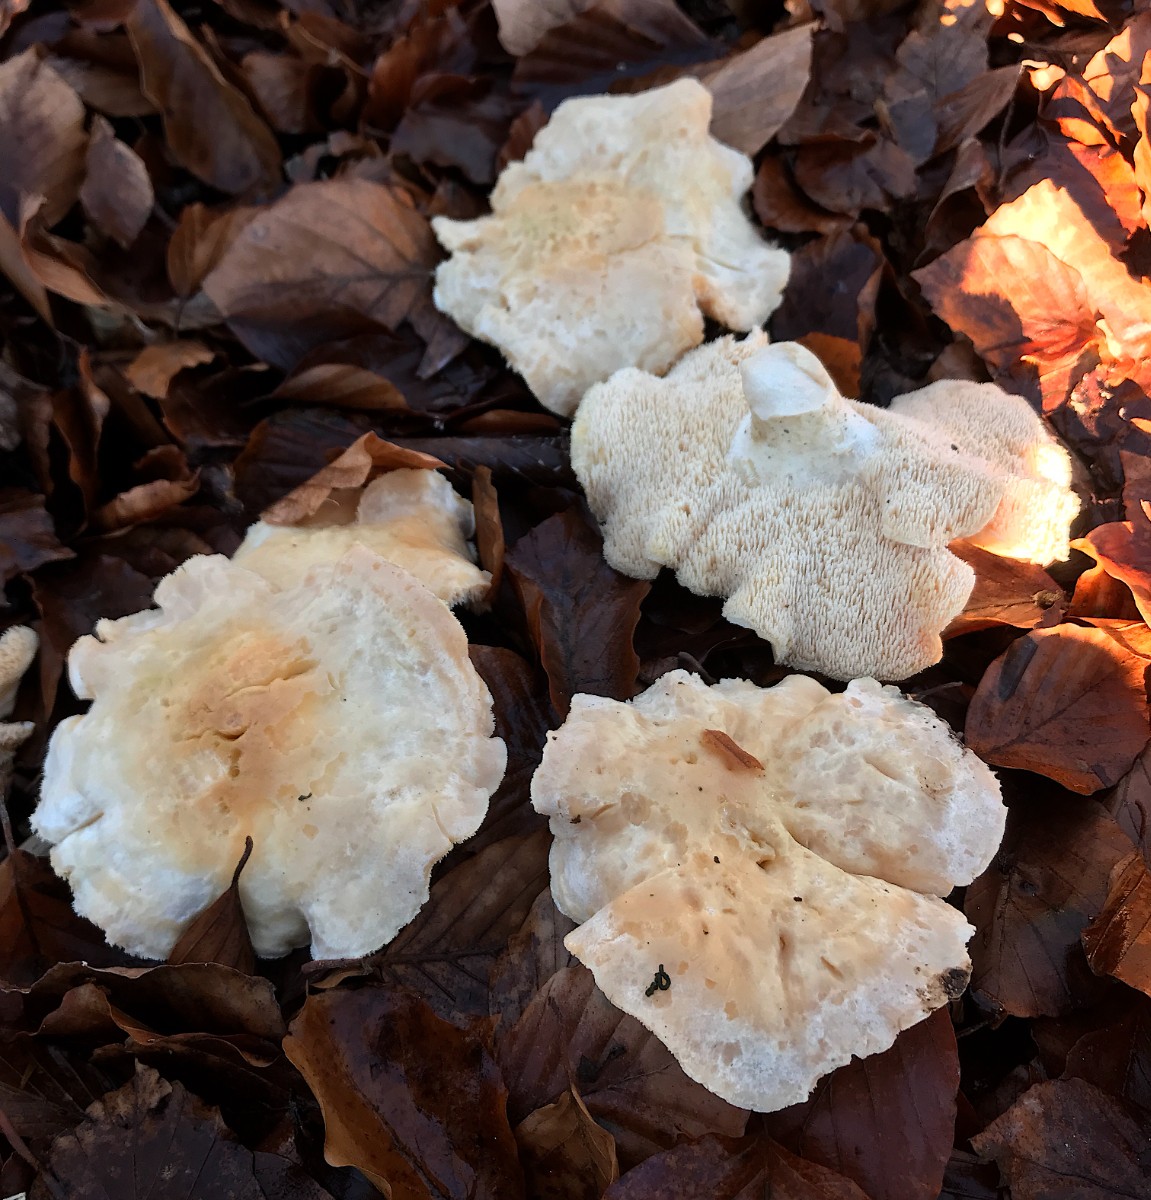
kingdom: Fungi
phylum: Basidiomycota
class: Agaricomycetes
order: Cantharellales
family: Hydnaceae
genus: Hydnum
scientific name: Hydnum repandum
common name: almindelig pigsvamp
